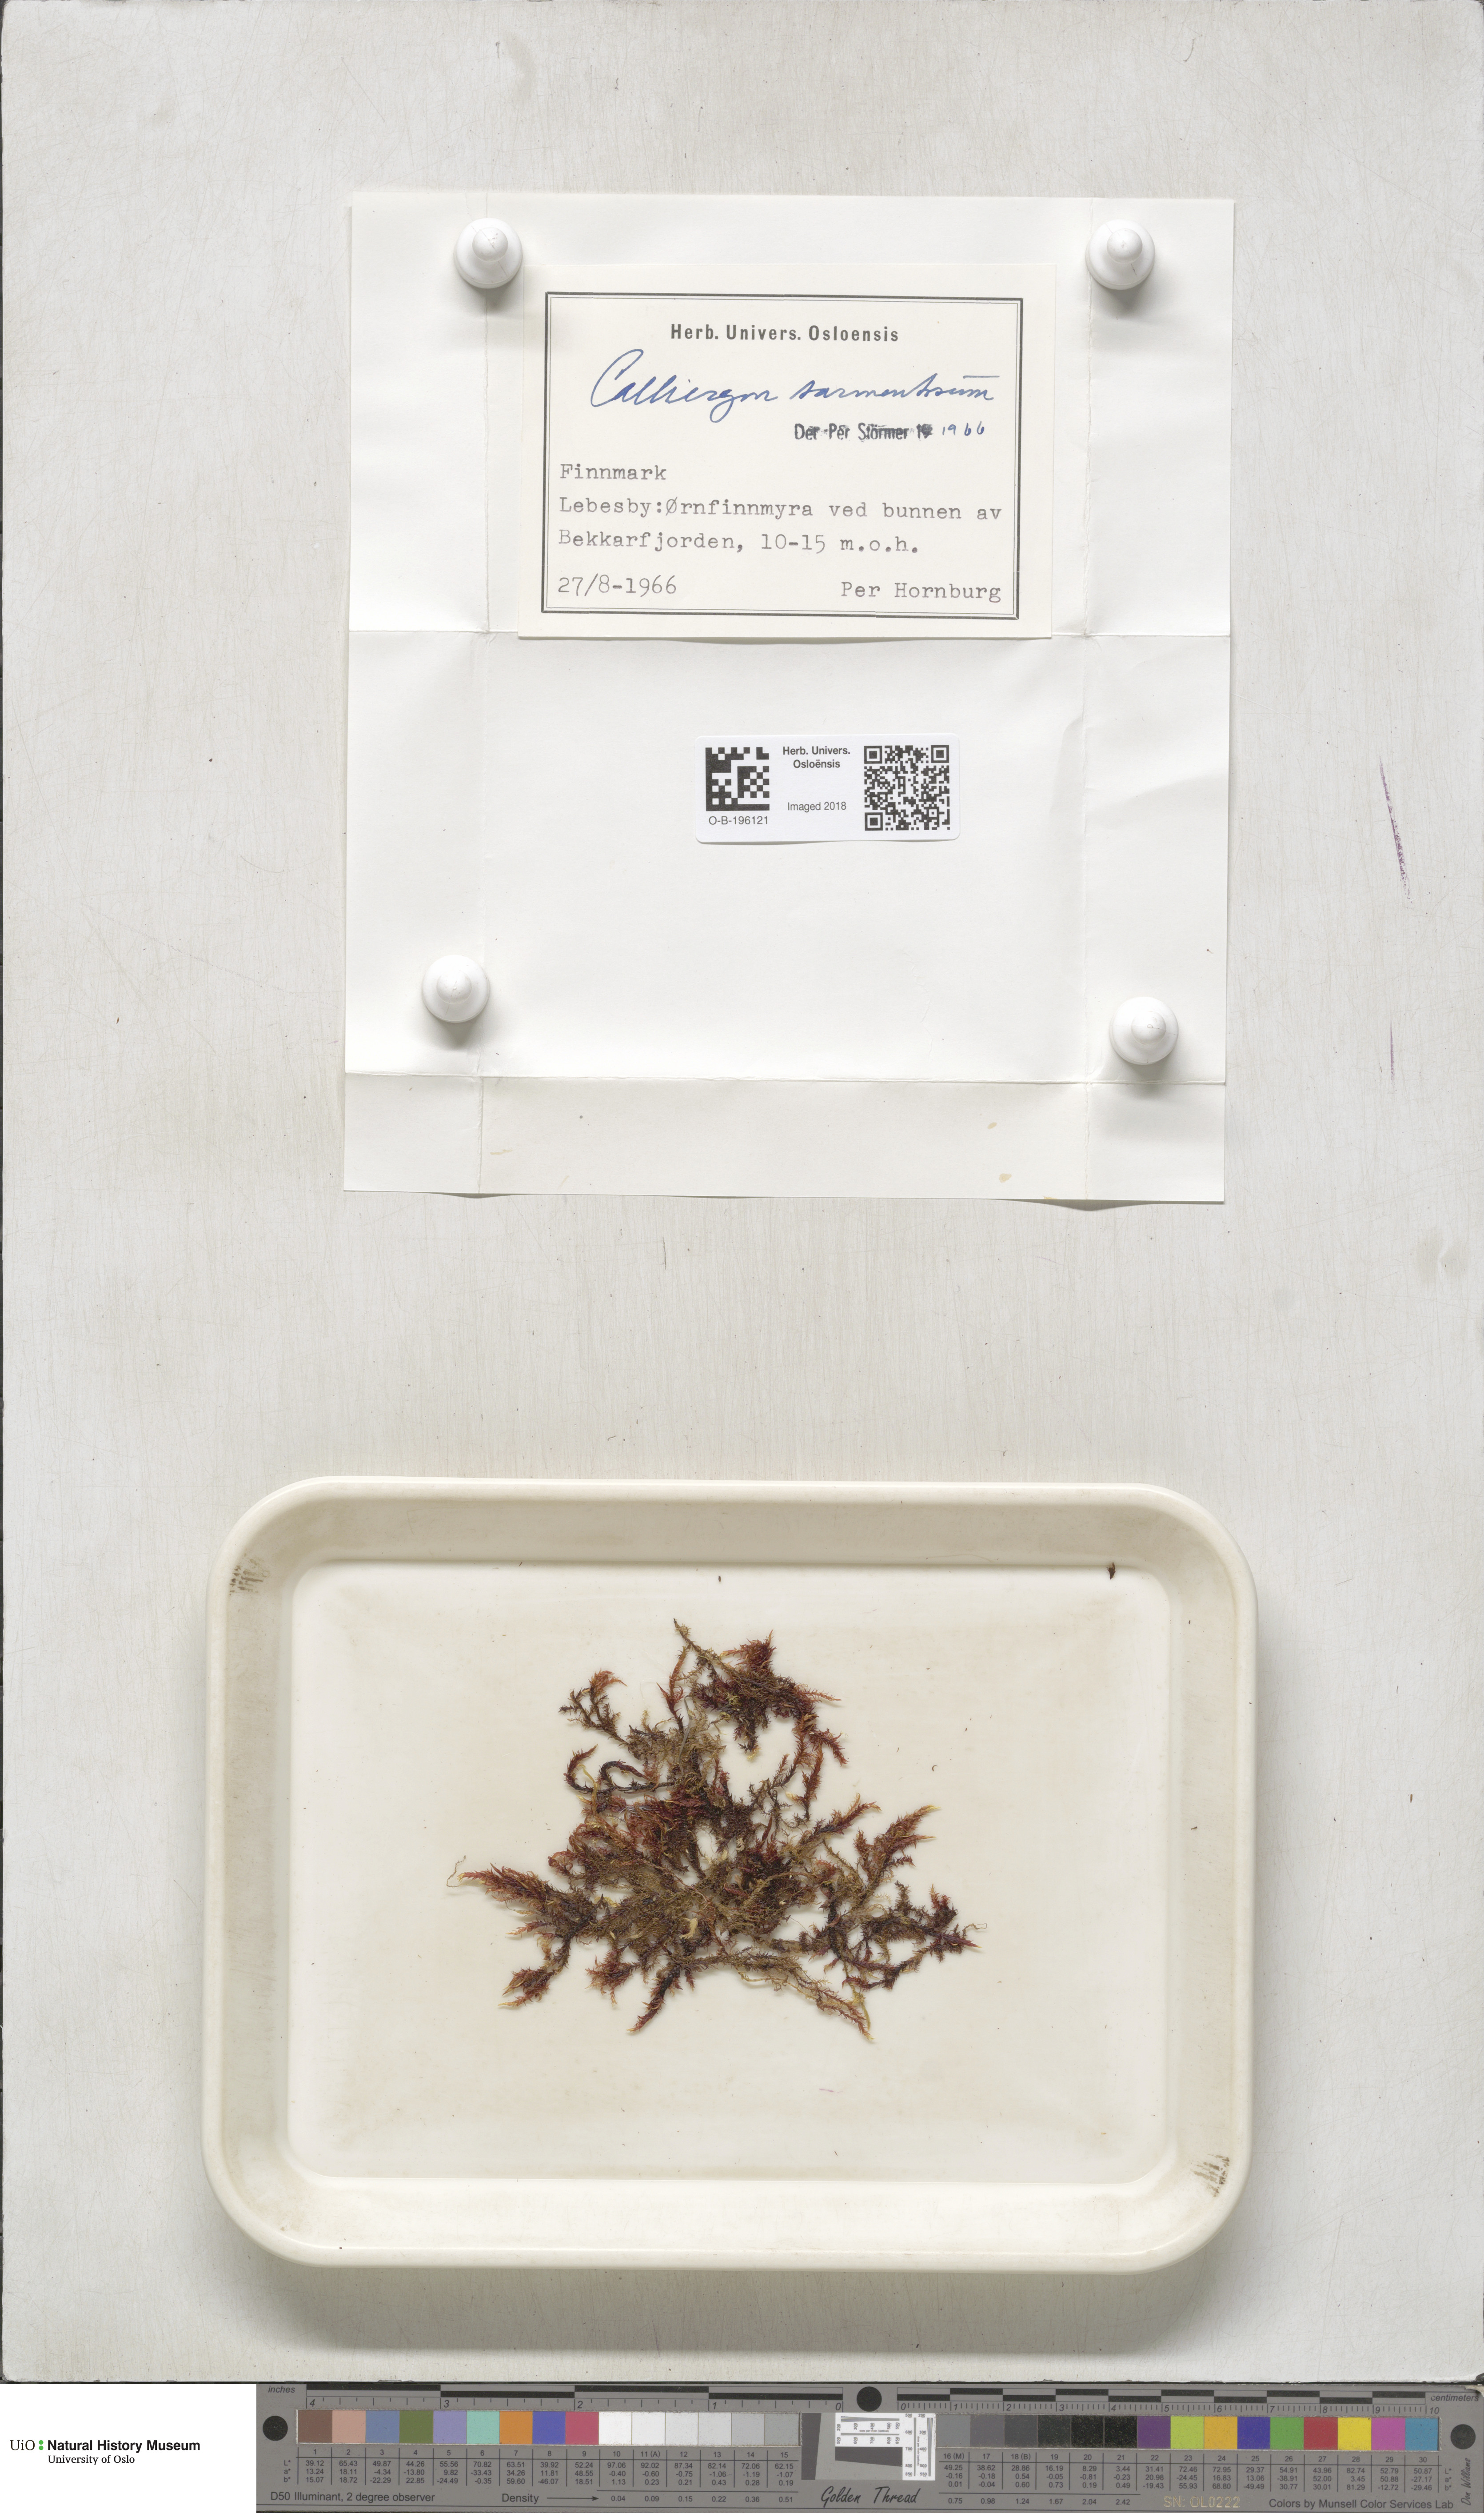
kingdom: Plantae
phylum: Bryophyta
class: Bryopsida
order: Hypnales
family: Calliergonaceae
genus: Sarmentypnum
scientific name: Sarmentypnum sarmentosum
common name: Twiggy spoon moss
